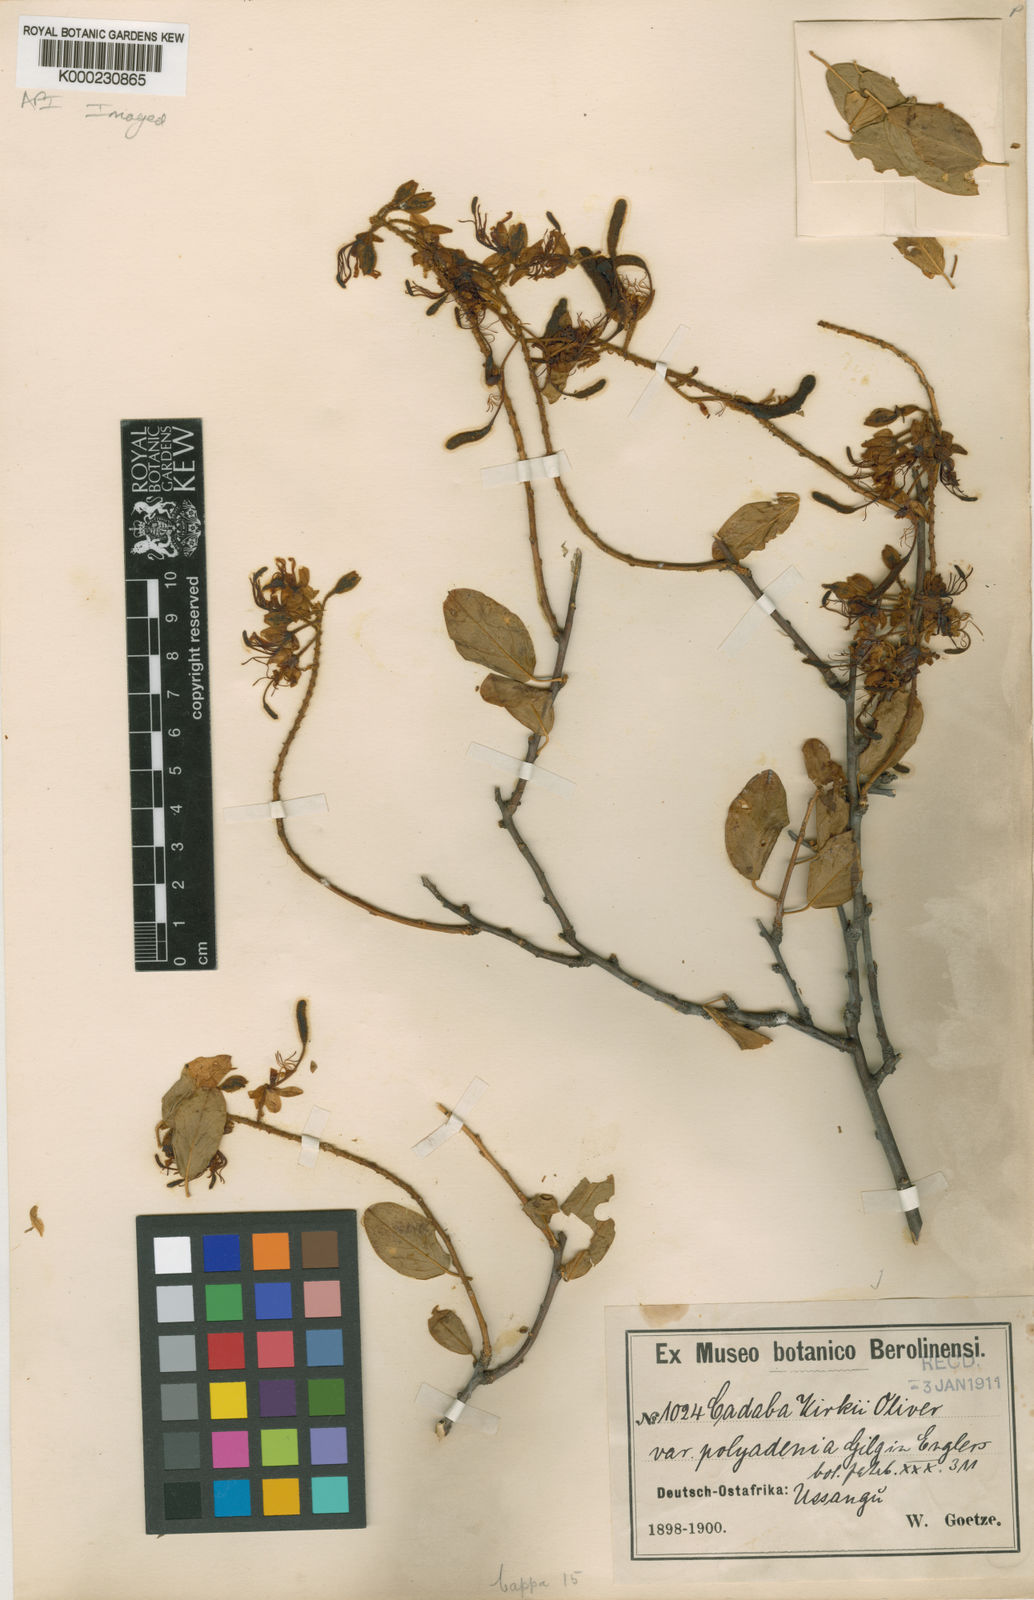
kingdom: Plantae
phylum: Tracheophyta
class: Magnoliopsida
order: Brassicales
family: Capparaceae
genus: Cadaba
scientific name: Cadaba kirkii
